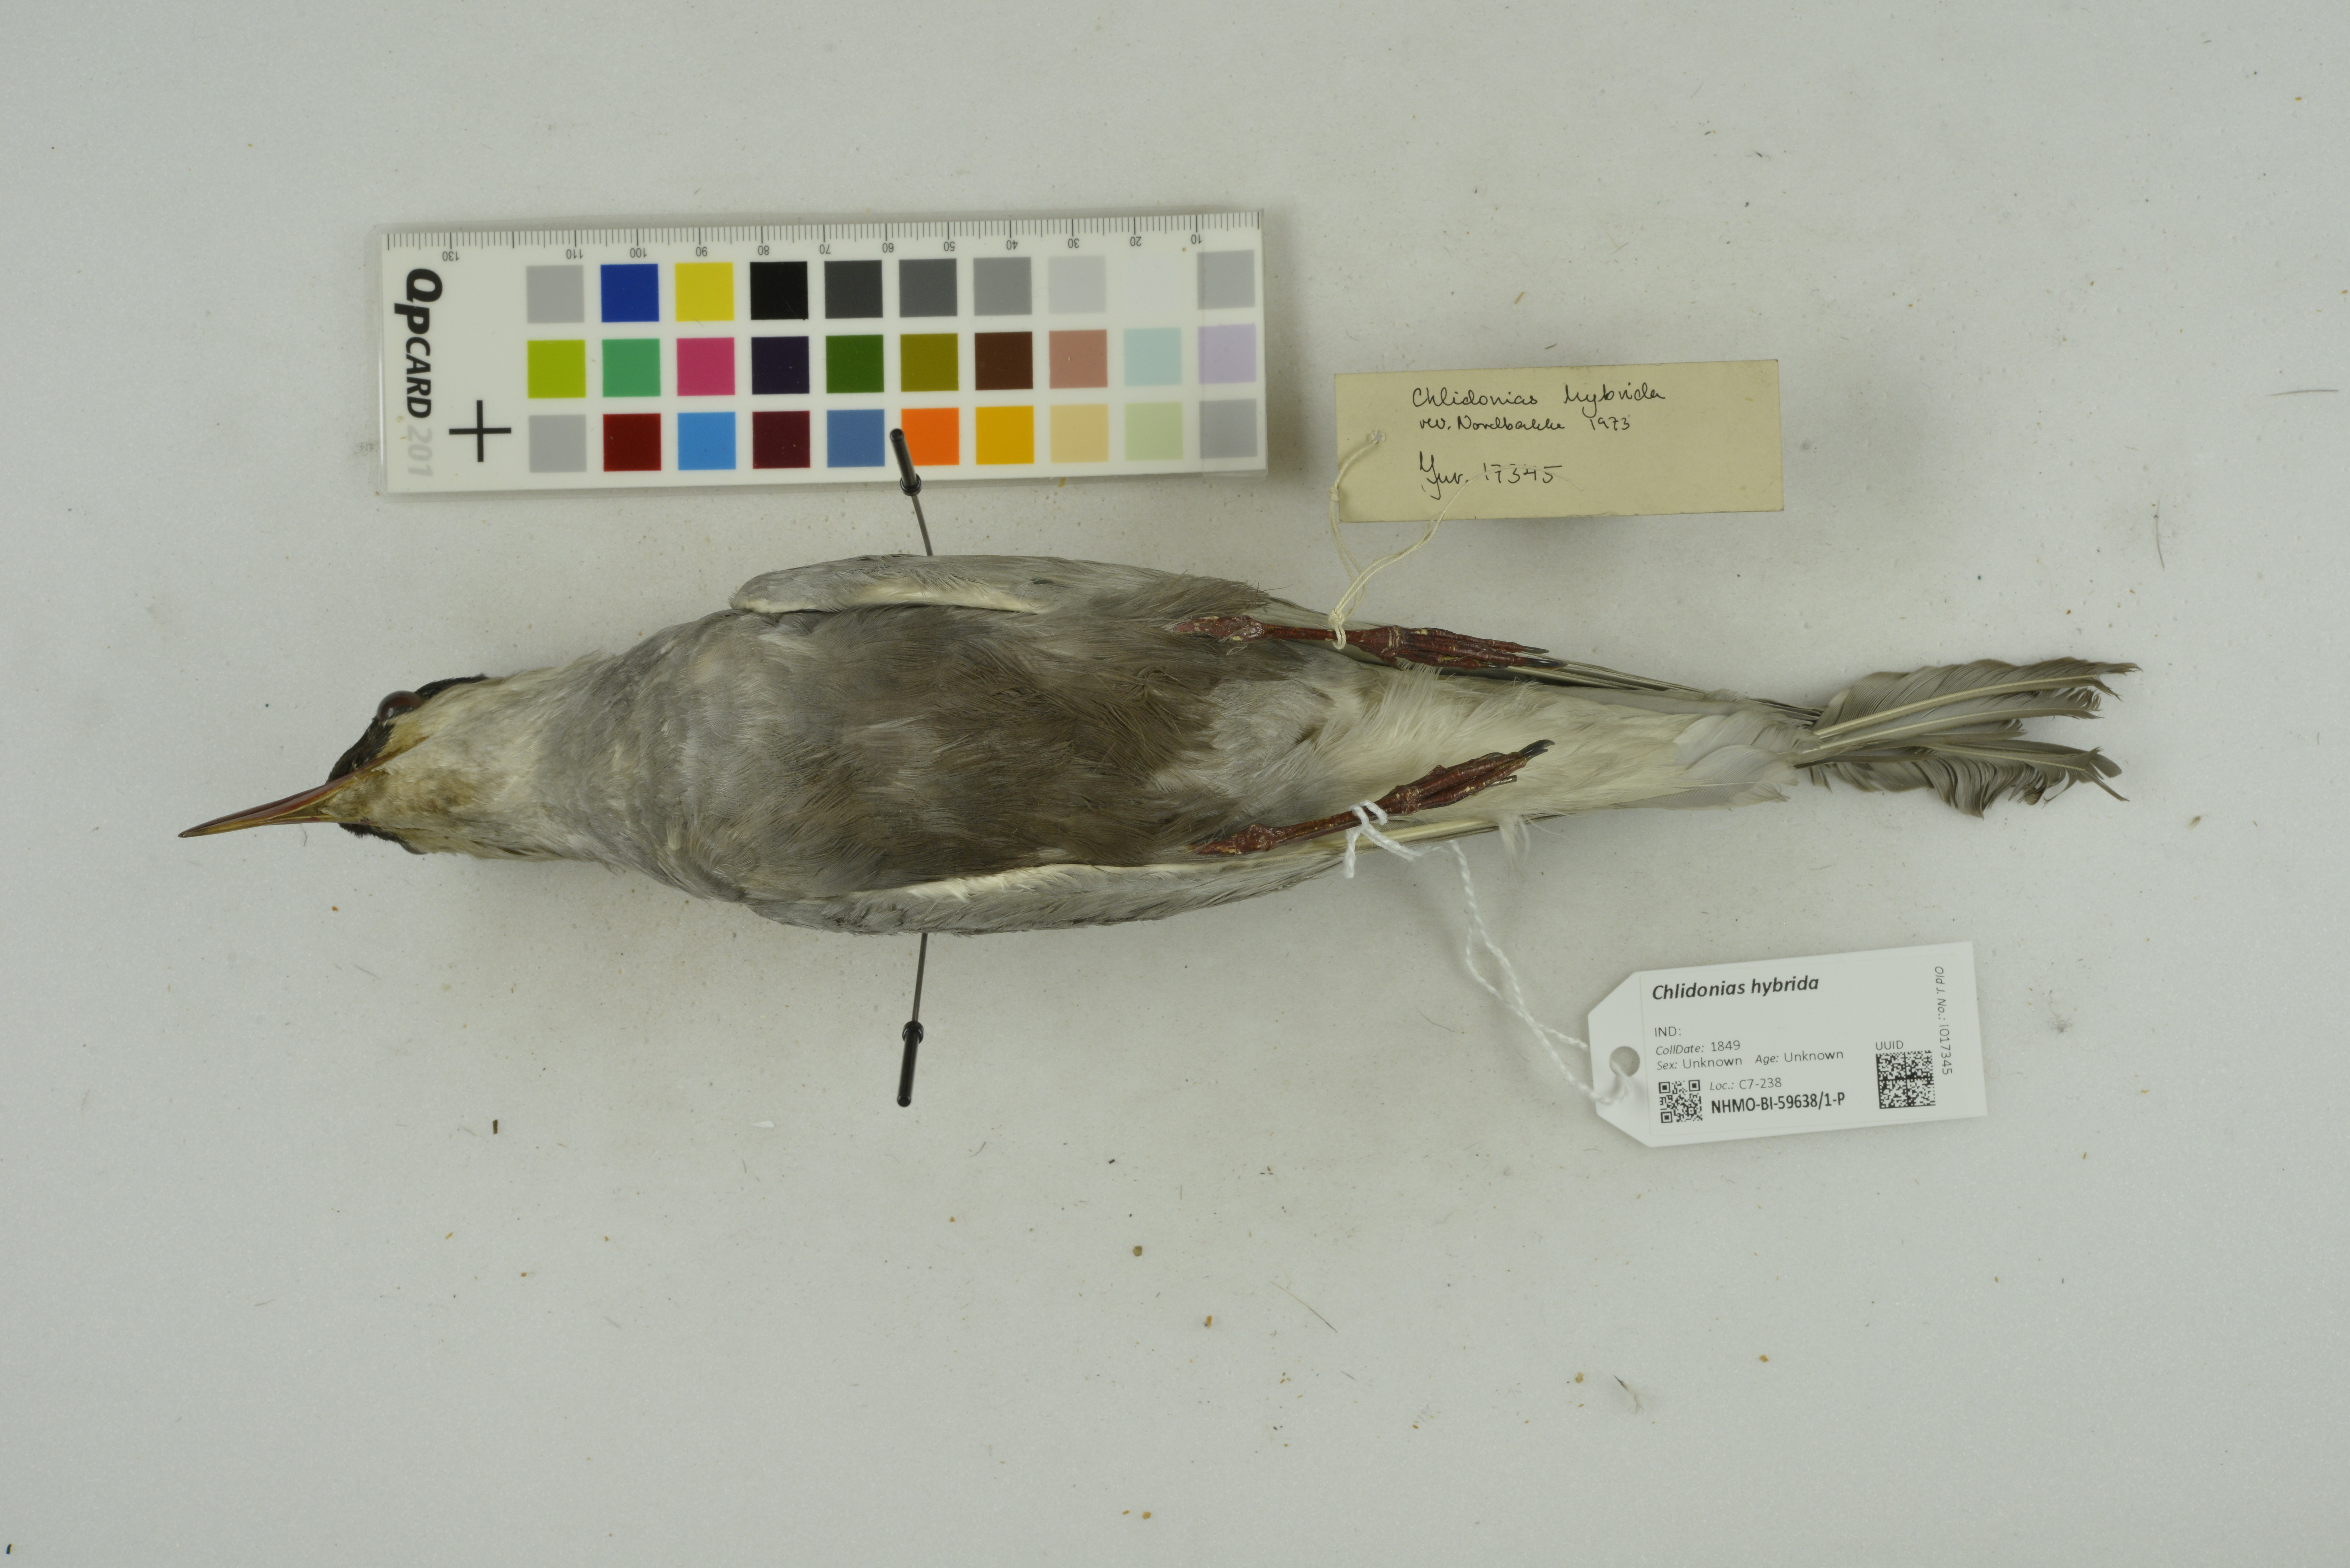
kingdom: Animalia
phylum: Chordata
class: Aves
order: Charadriiformes
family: Laridae
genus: Chlidonias
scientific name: Chlidonias hybrida
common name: Whiskered tern
